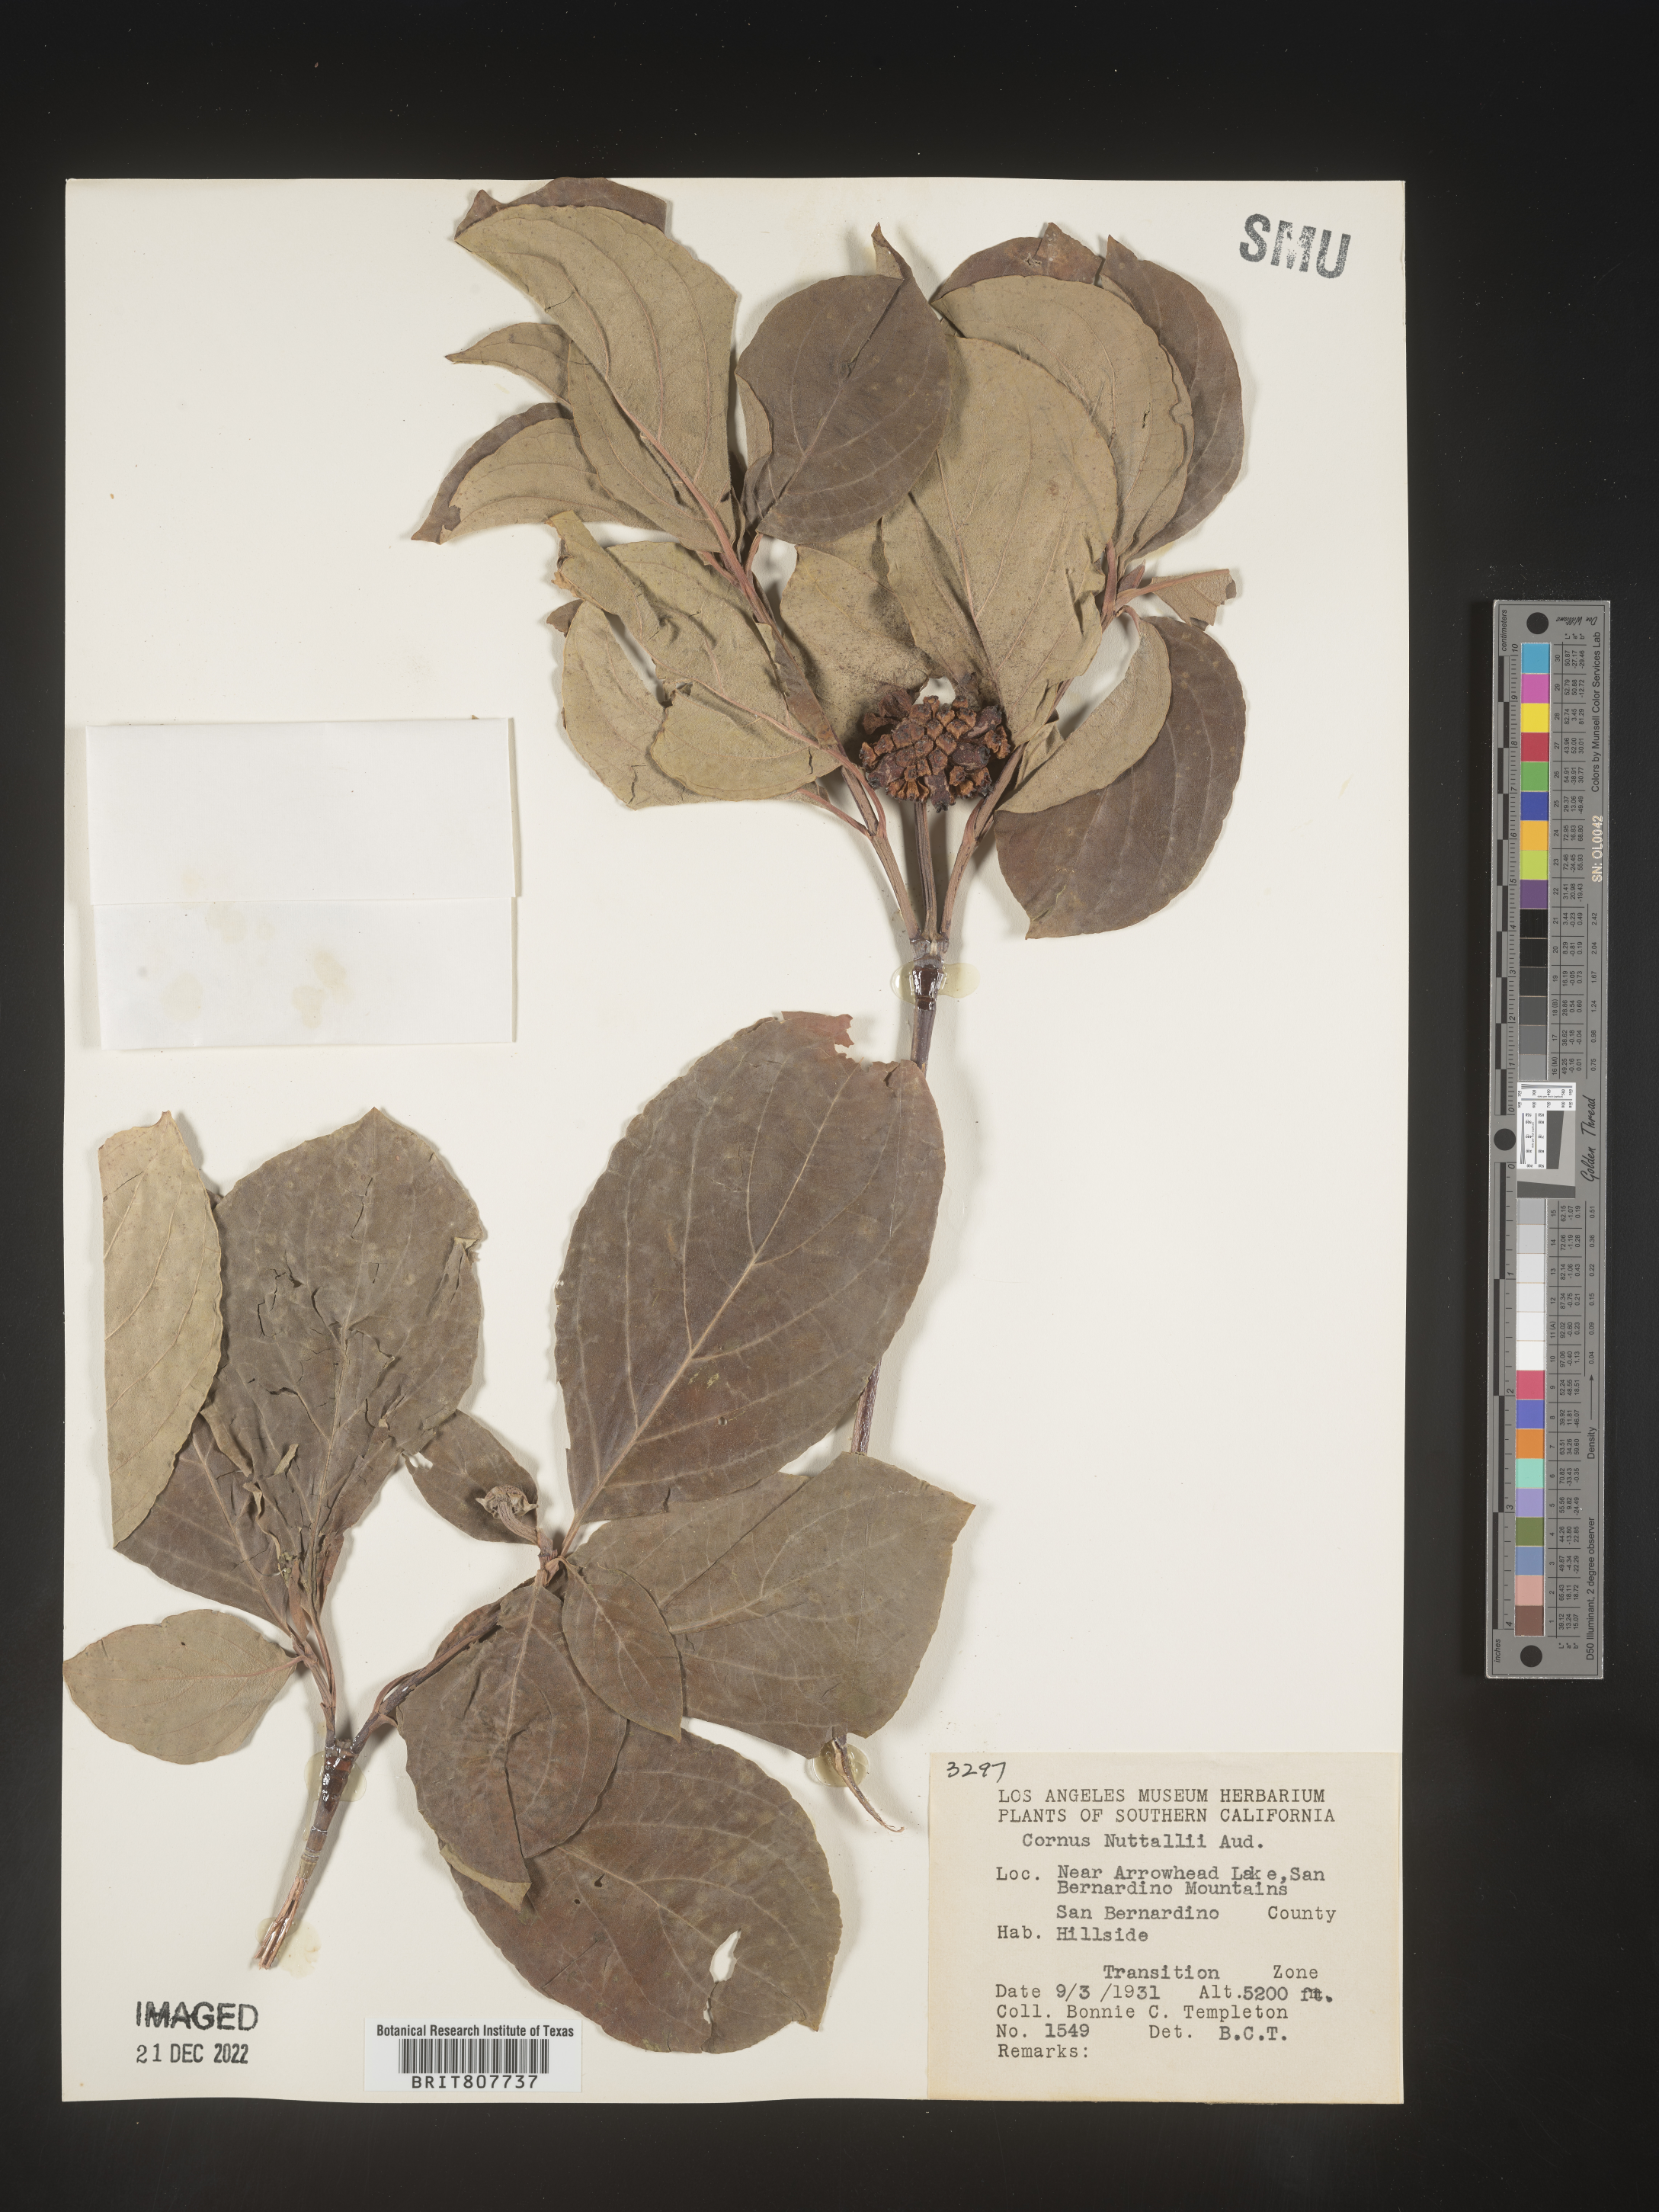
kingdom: Plantae
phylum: Tracheophyta
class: Magnoliopsida
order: Cornales
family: Cornaceae
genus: Cornus
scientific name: Cornus nuttallii
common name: Pacific dogwood
